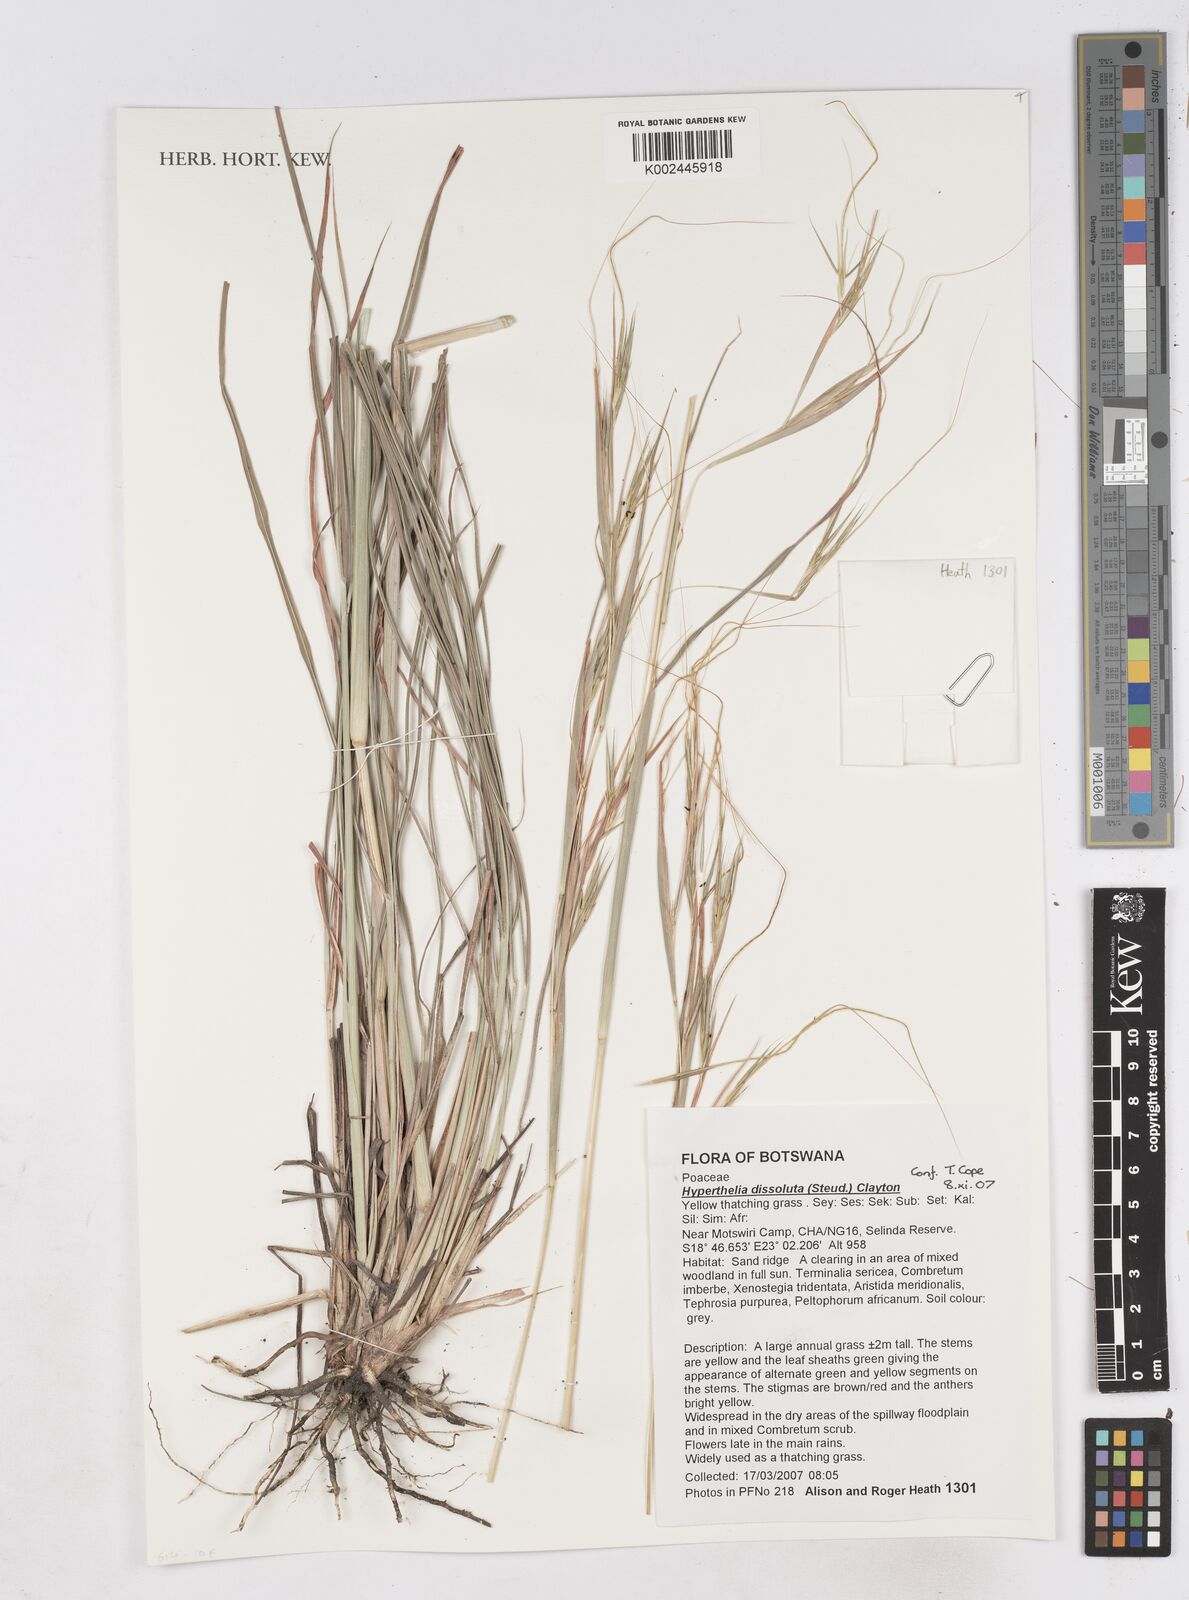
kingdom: Plantae
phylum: Tracheophyta
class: Liliopsida
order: Poales
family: Poaceae
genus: Hyperthelia
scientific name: Hyperthelia dissoluta
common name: Yellow thatching grass
